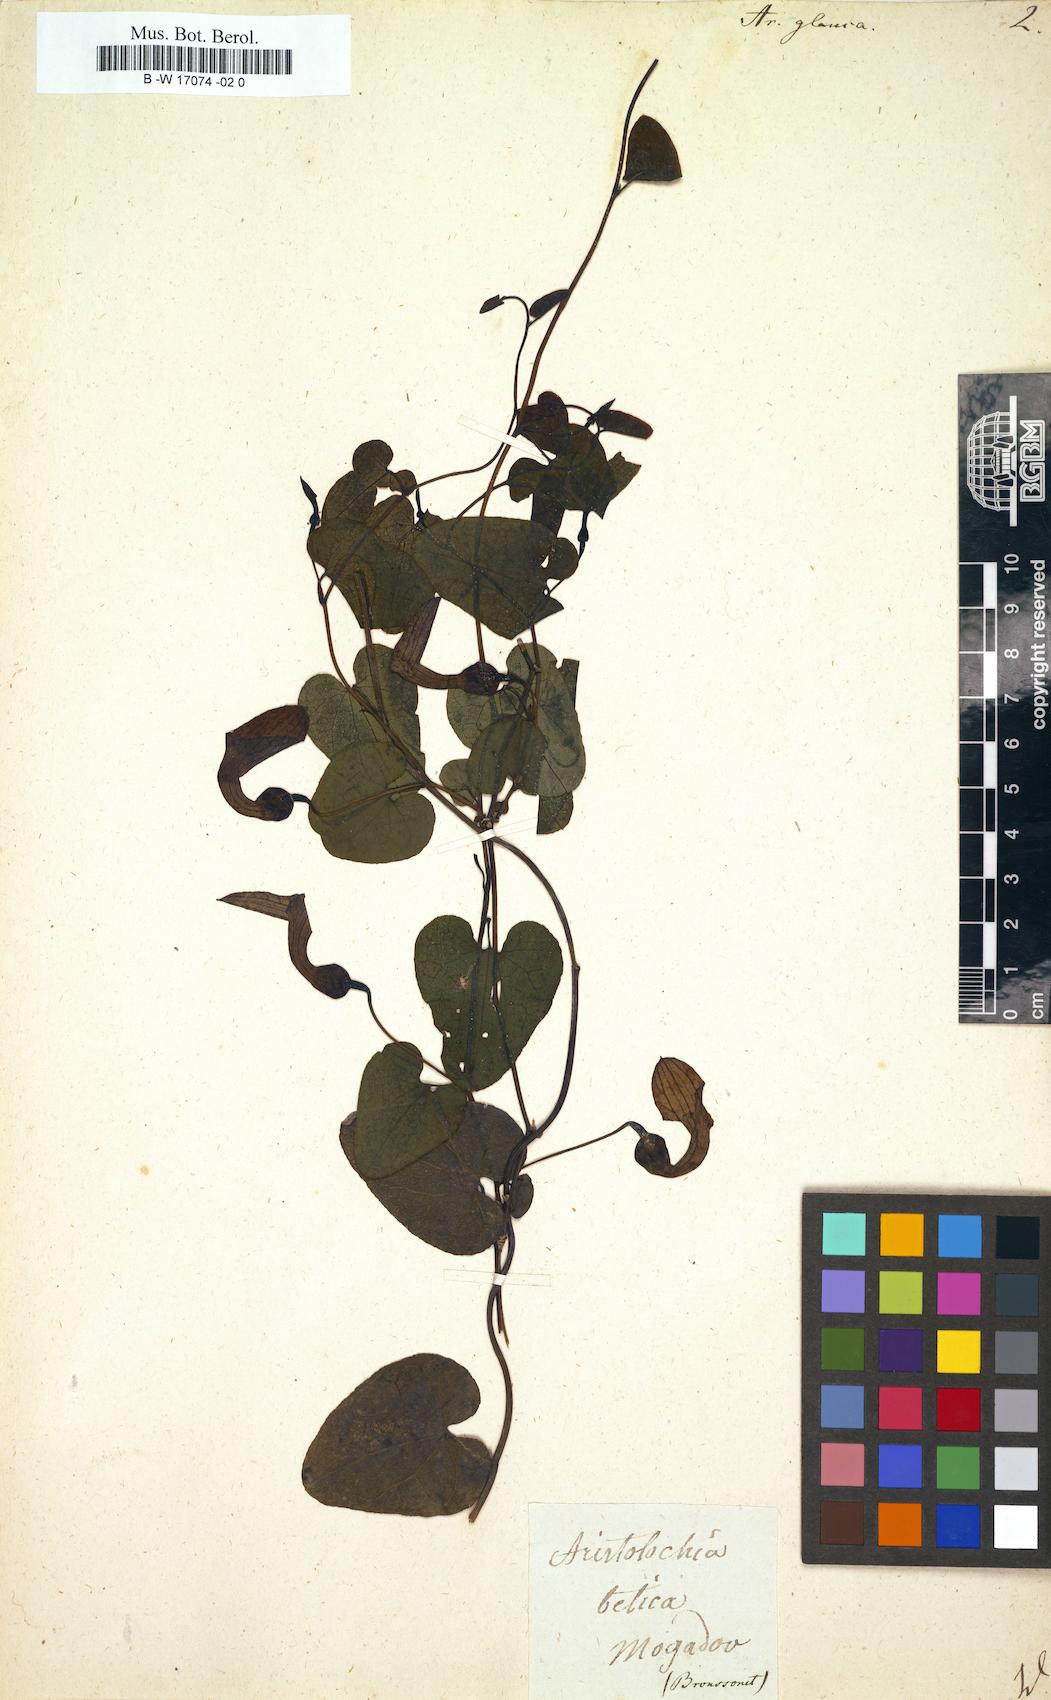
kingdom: Plantae
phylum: Tracheophyta
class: Magnoliopsida
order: Piperales
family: Aristolochiaceae
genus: Aristolochia
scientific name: Aristolochia baetica
